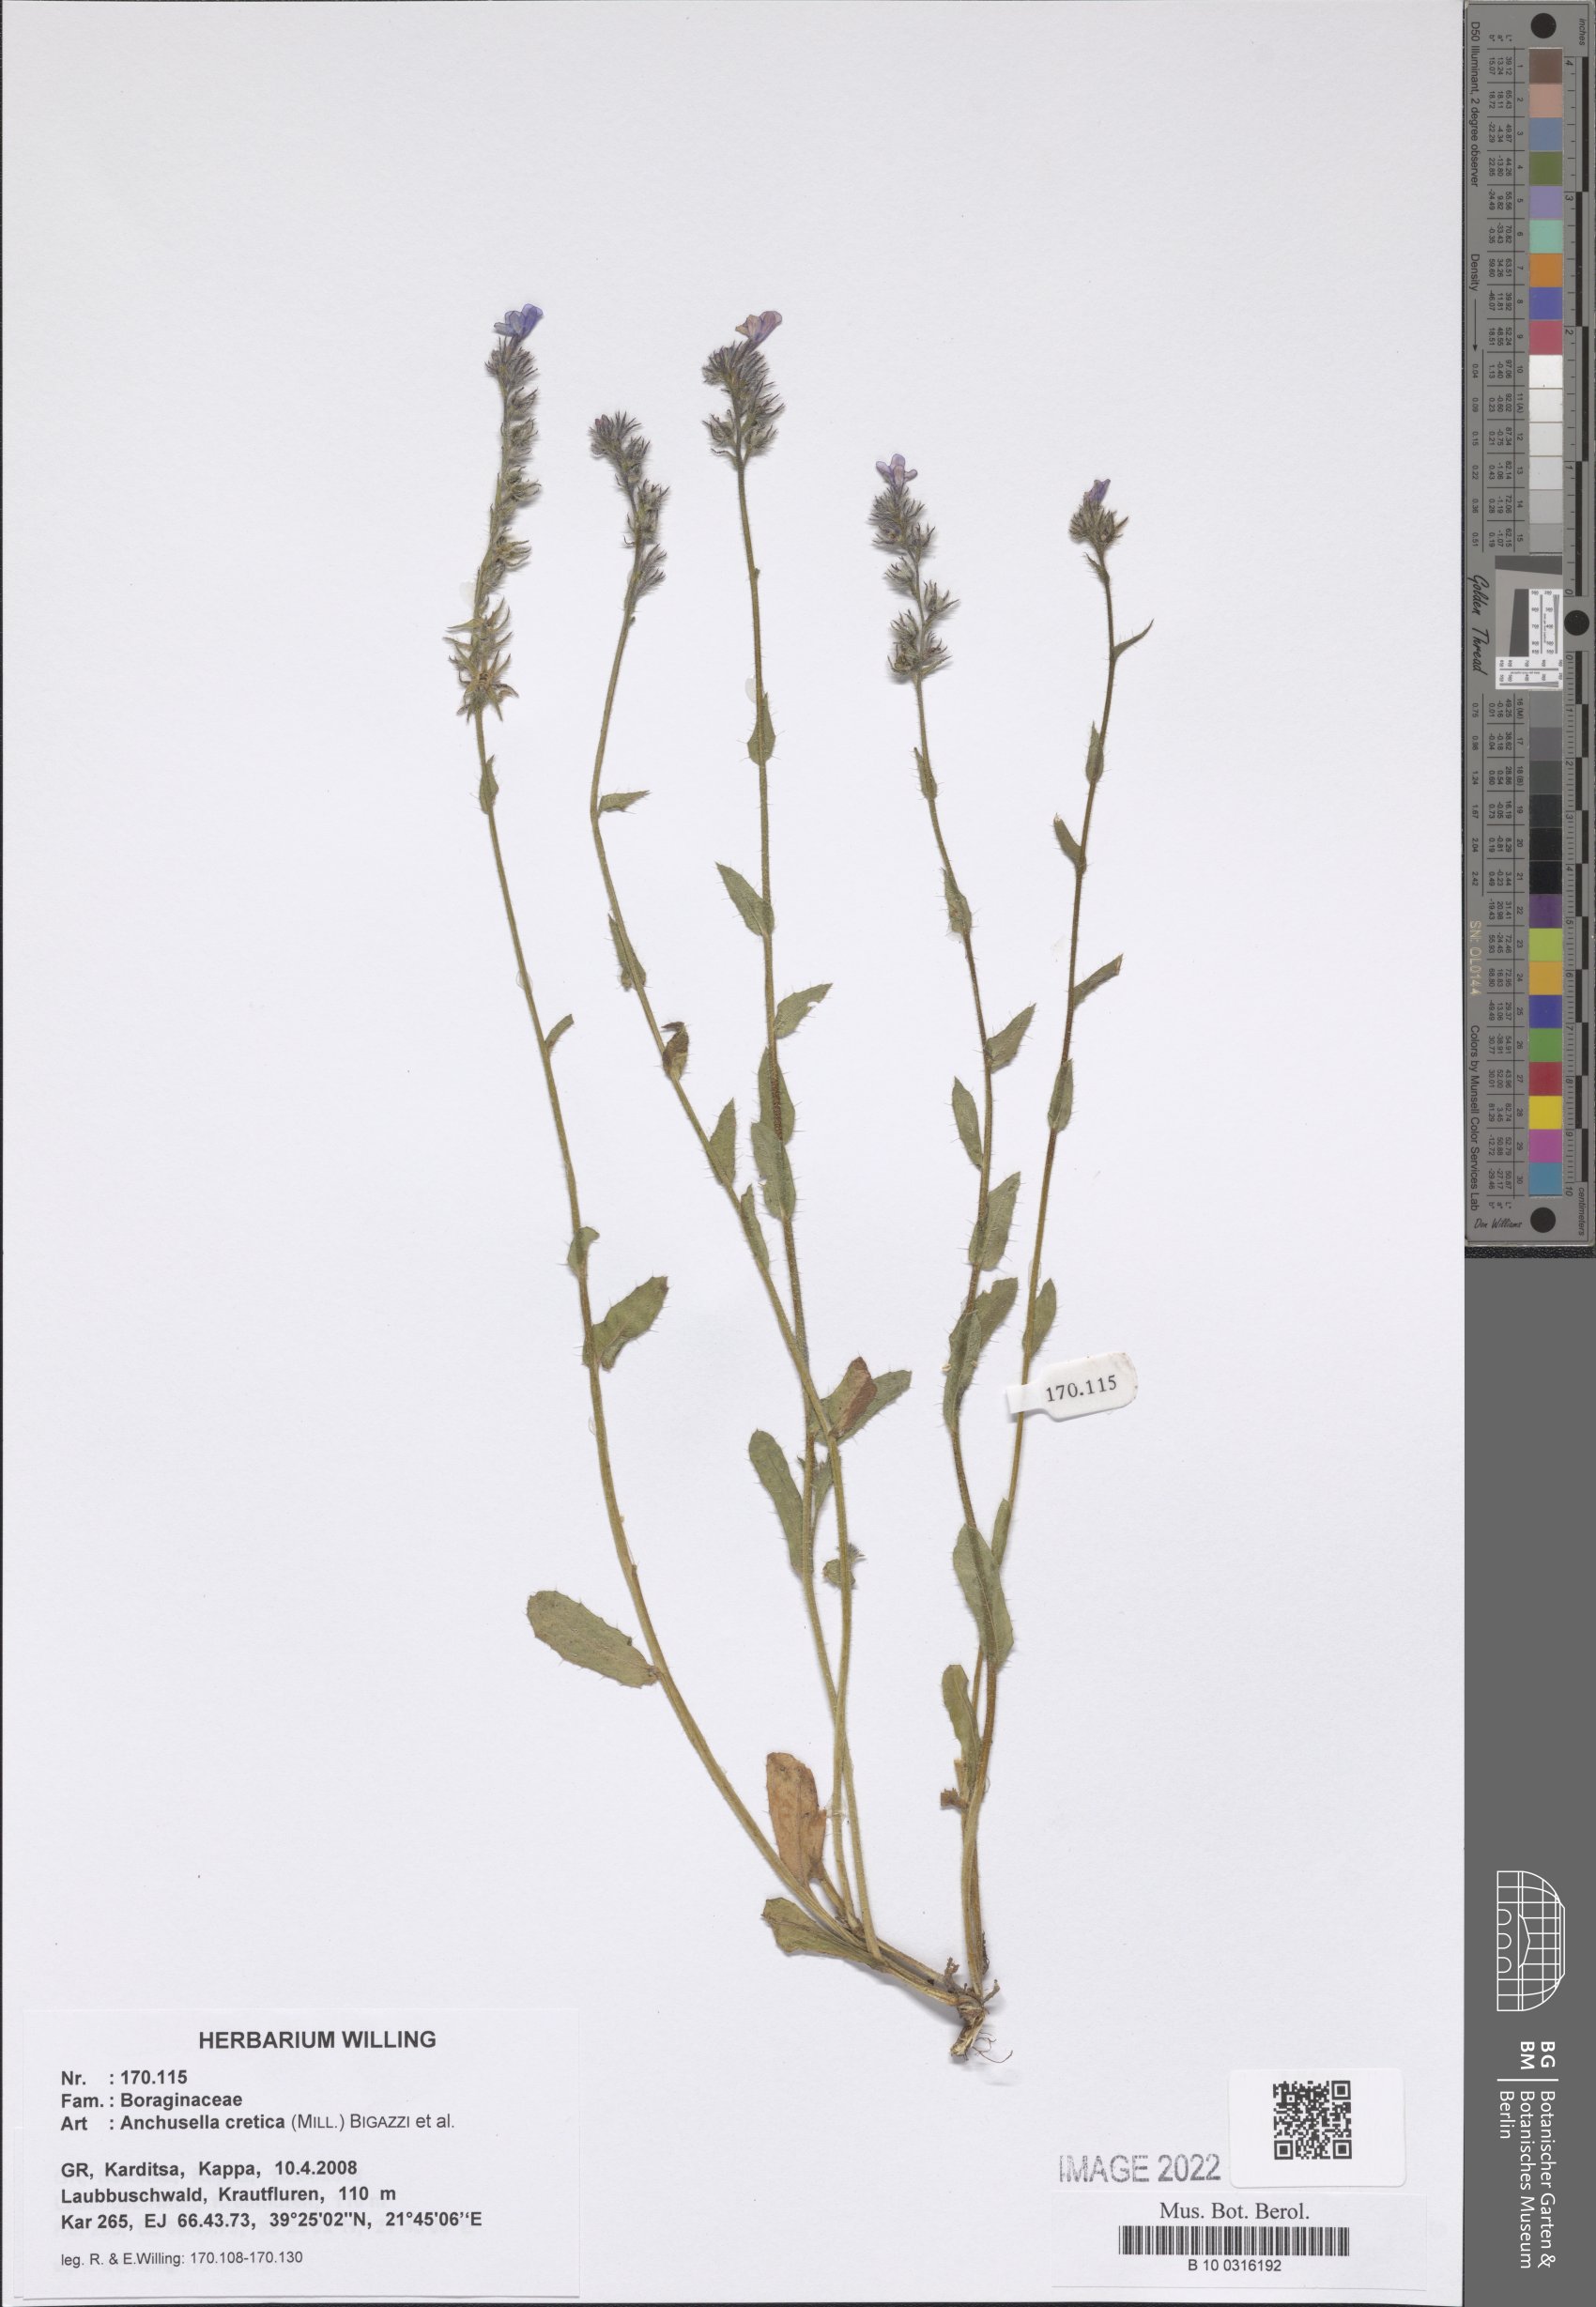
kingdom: Plantae
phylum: Tracheophyta
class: Magnoliopsida
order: Boraginales
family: Boraginaceae
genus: Anchusella
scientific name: Anchusella cretica
